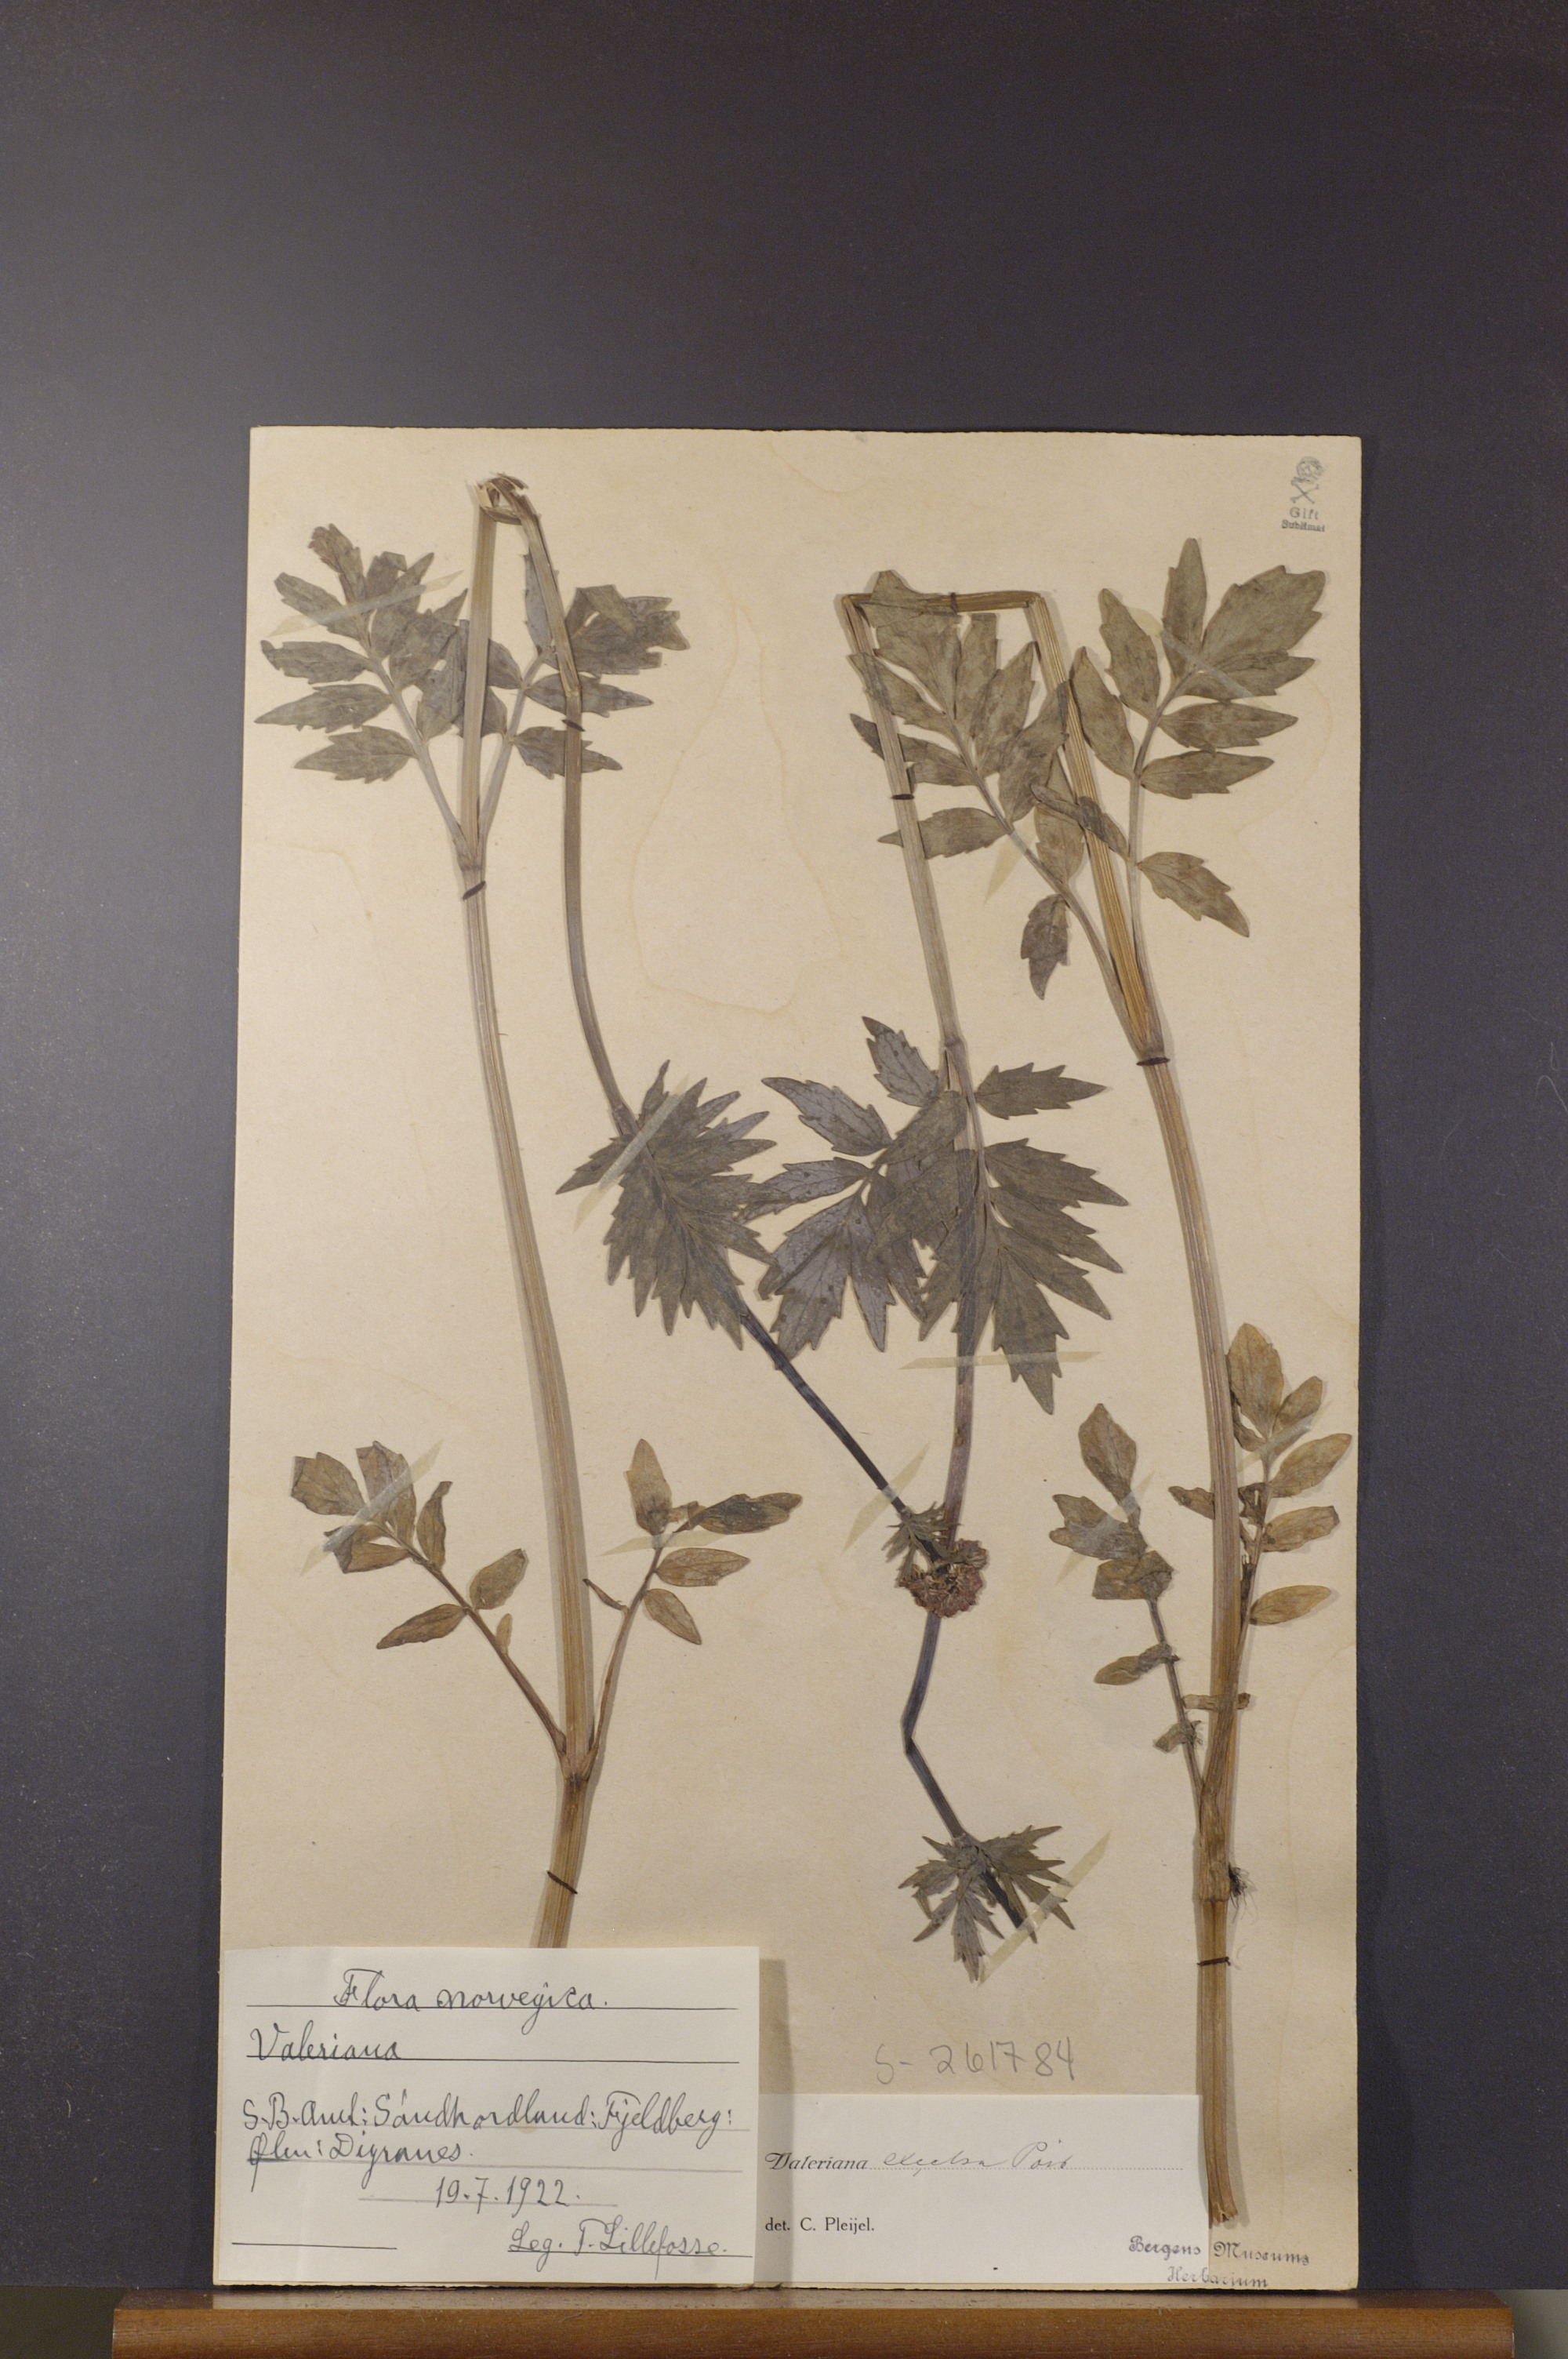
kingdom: Plantae
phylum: Tracheophyta
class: Magnoliopsida
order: Dipsacales
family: Caprifoliaceae
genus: Valeriana
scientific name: Valeriana sambucifolia
